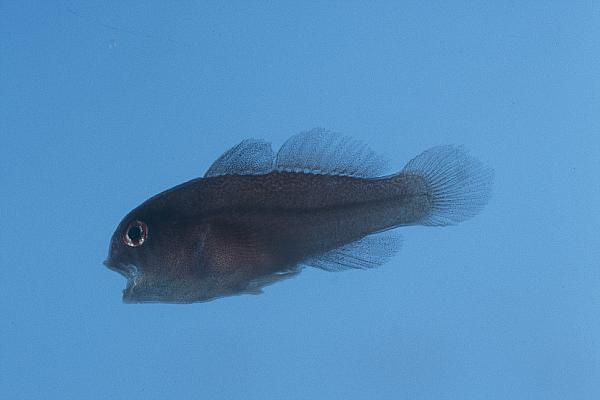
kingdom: Animalia
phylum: Chordata
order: Perciformes
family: Gobiidae
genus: Gobiodon
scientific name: Gobiodon unicolor
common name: Unicolor coralgoby
